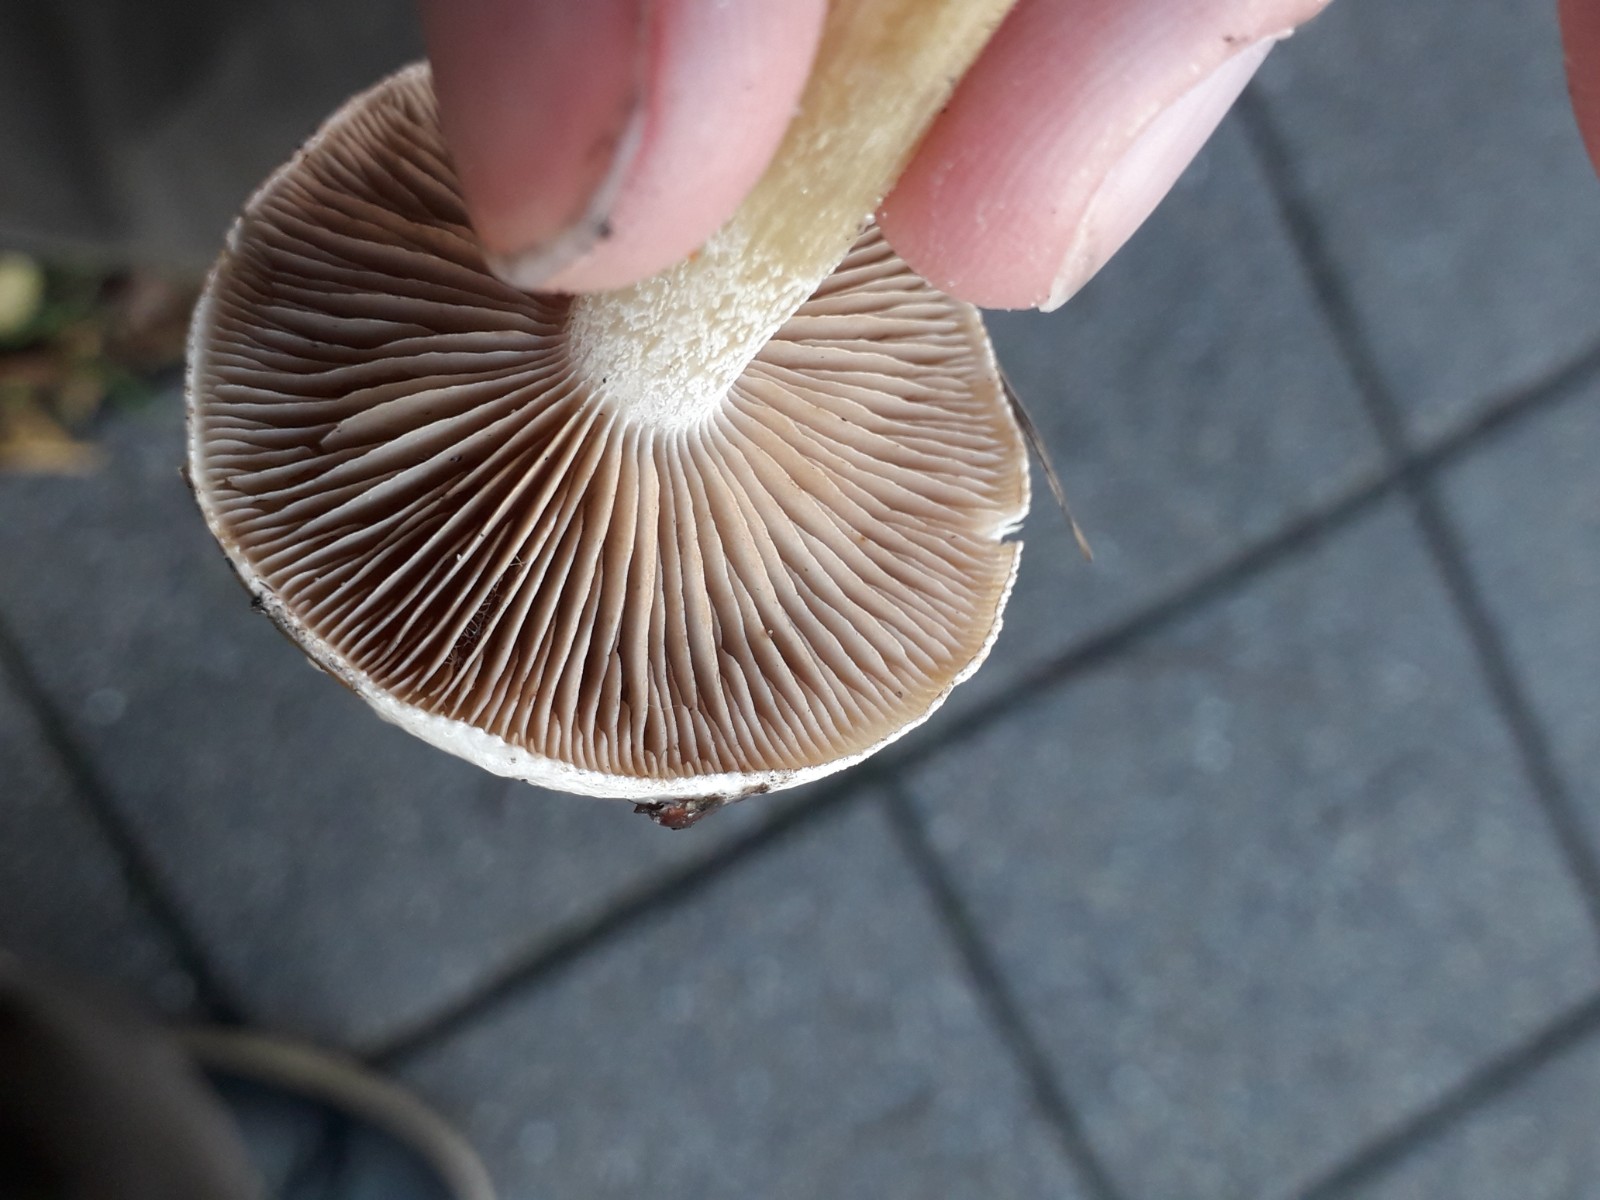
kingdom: Fungi
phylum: Basidiomycota
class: Agaricomycetes
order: Agaricales
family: Hymenogastraceae
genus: Hebeloma
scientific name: Hebeloma mesophaeum
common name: lerbrun tåreblad
